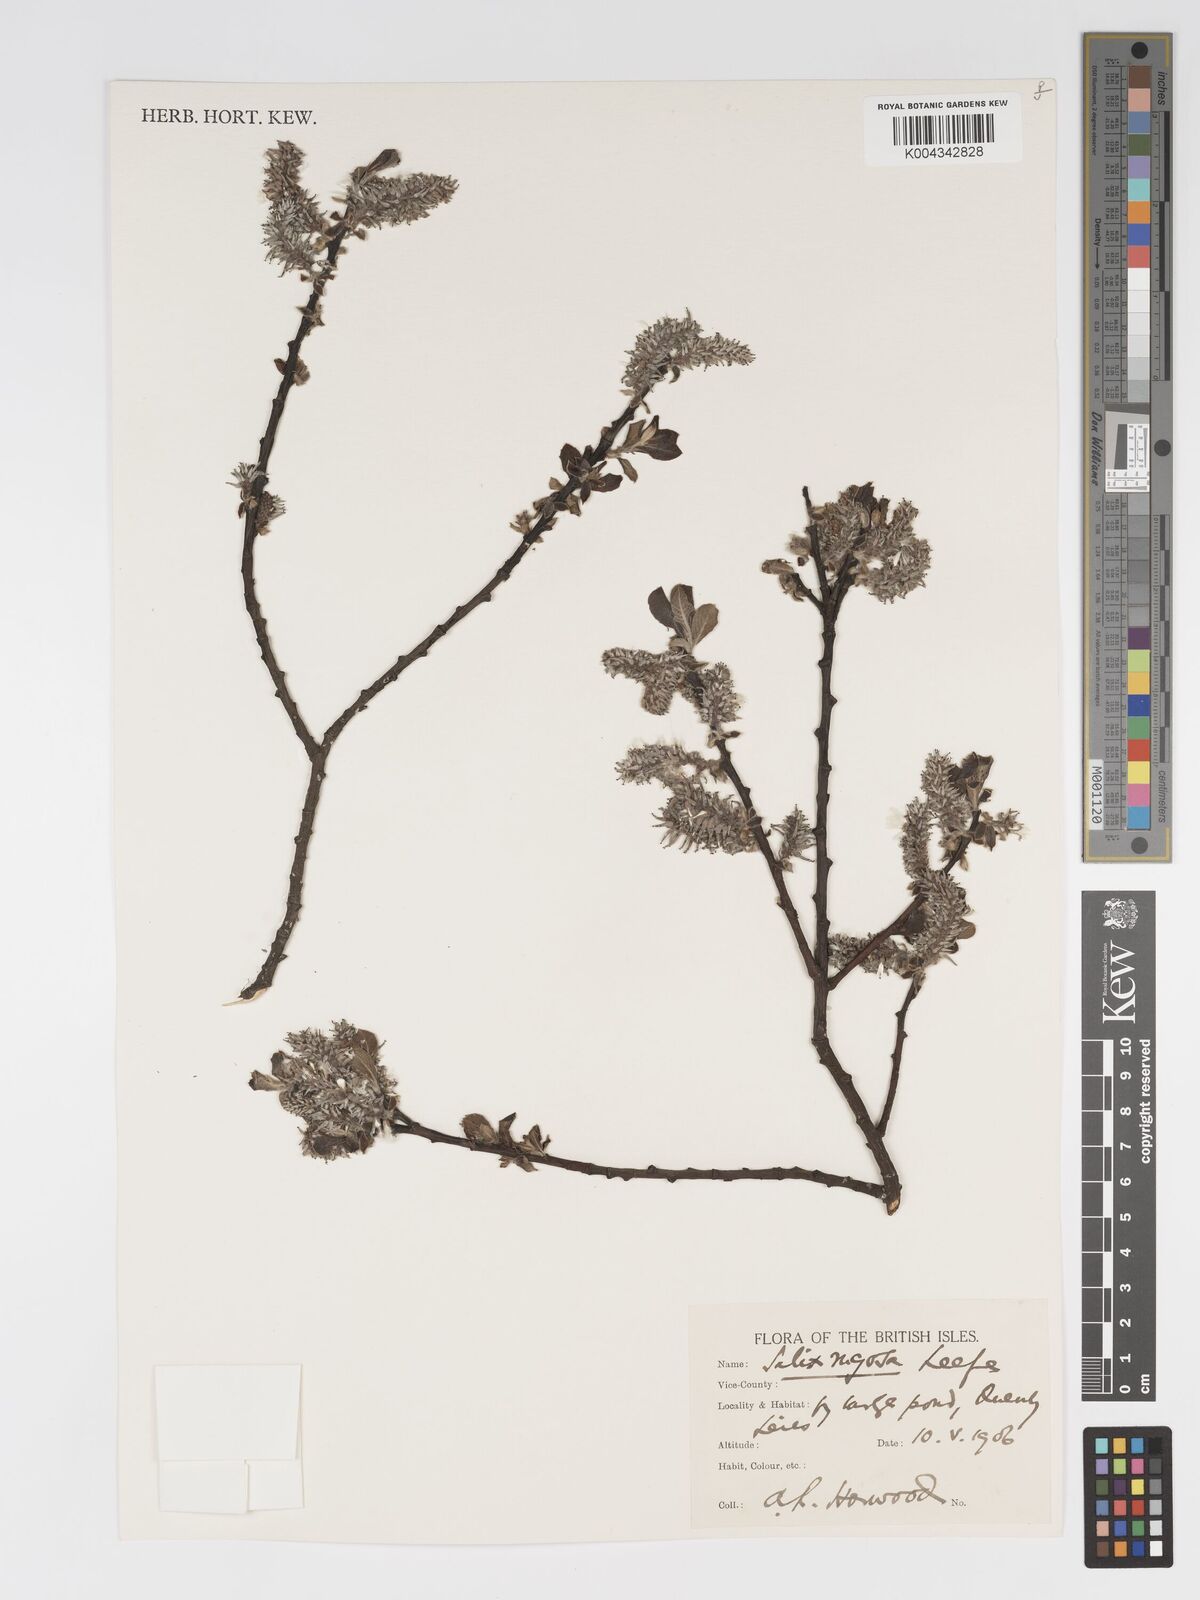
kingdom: Plantae
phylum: Tracheophyta
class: Magnoliopsida
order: Malpighiales
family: Salicaceae
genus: Salix
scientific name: Salix atrocinerea
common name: Rusty willow
